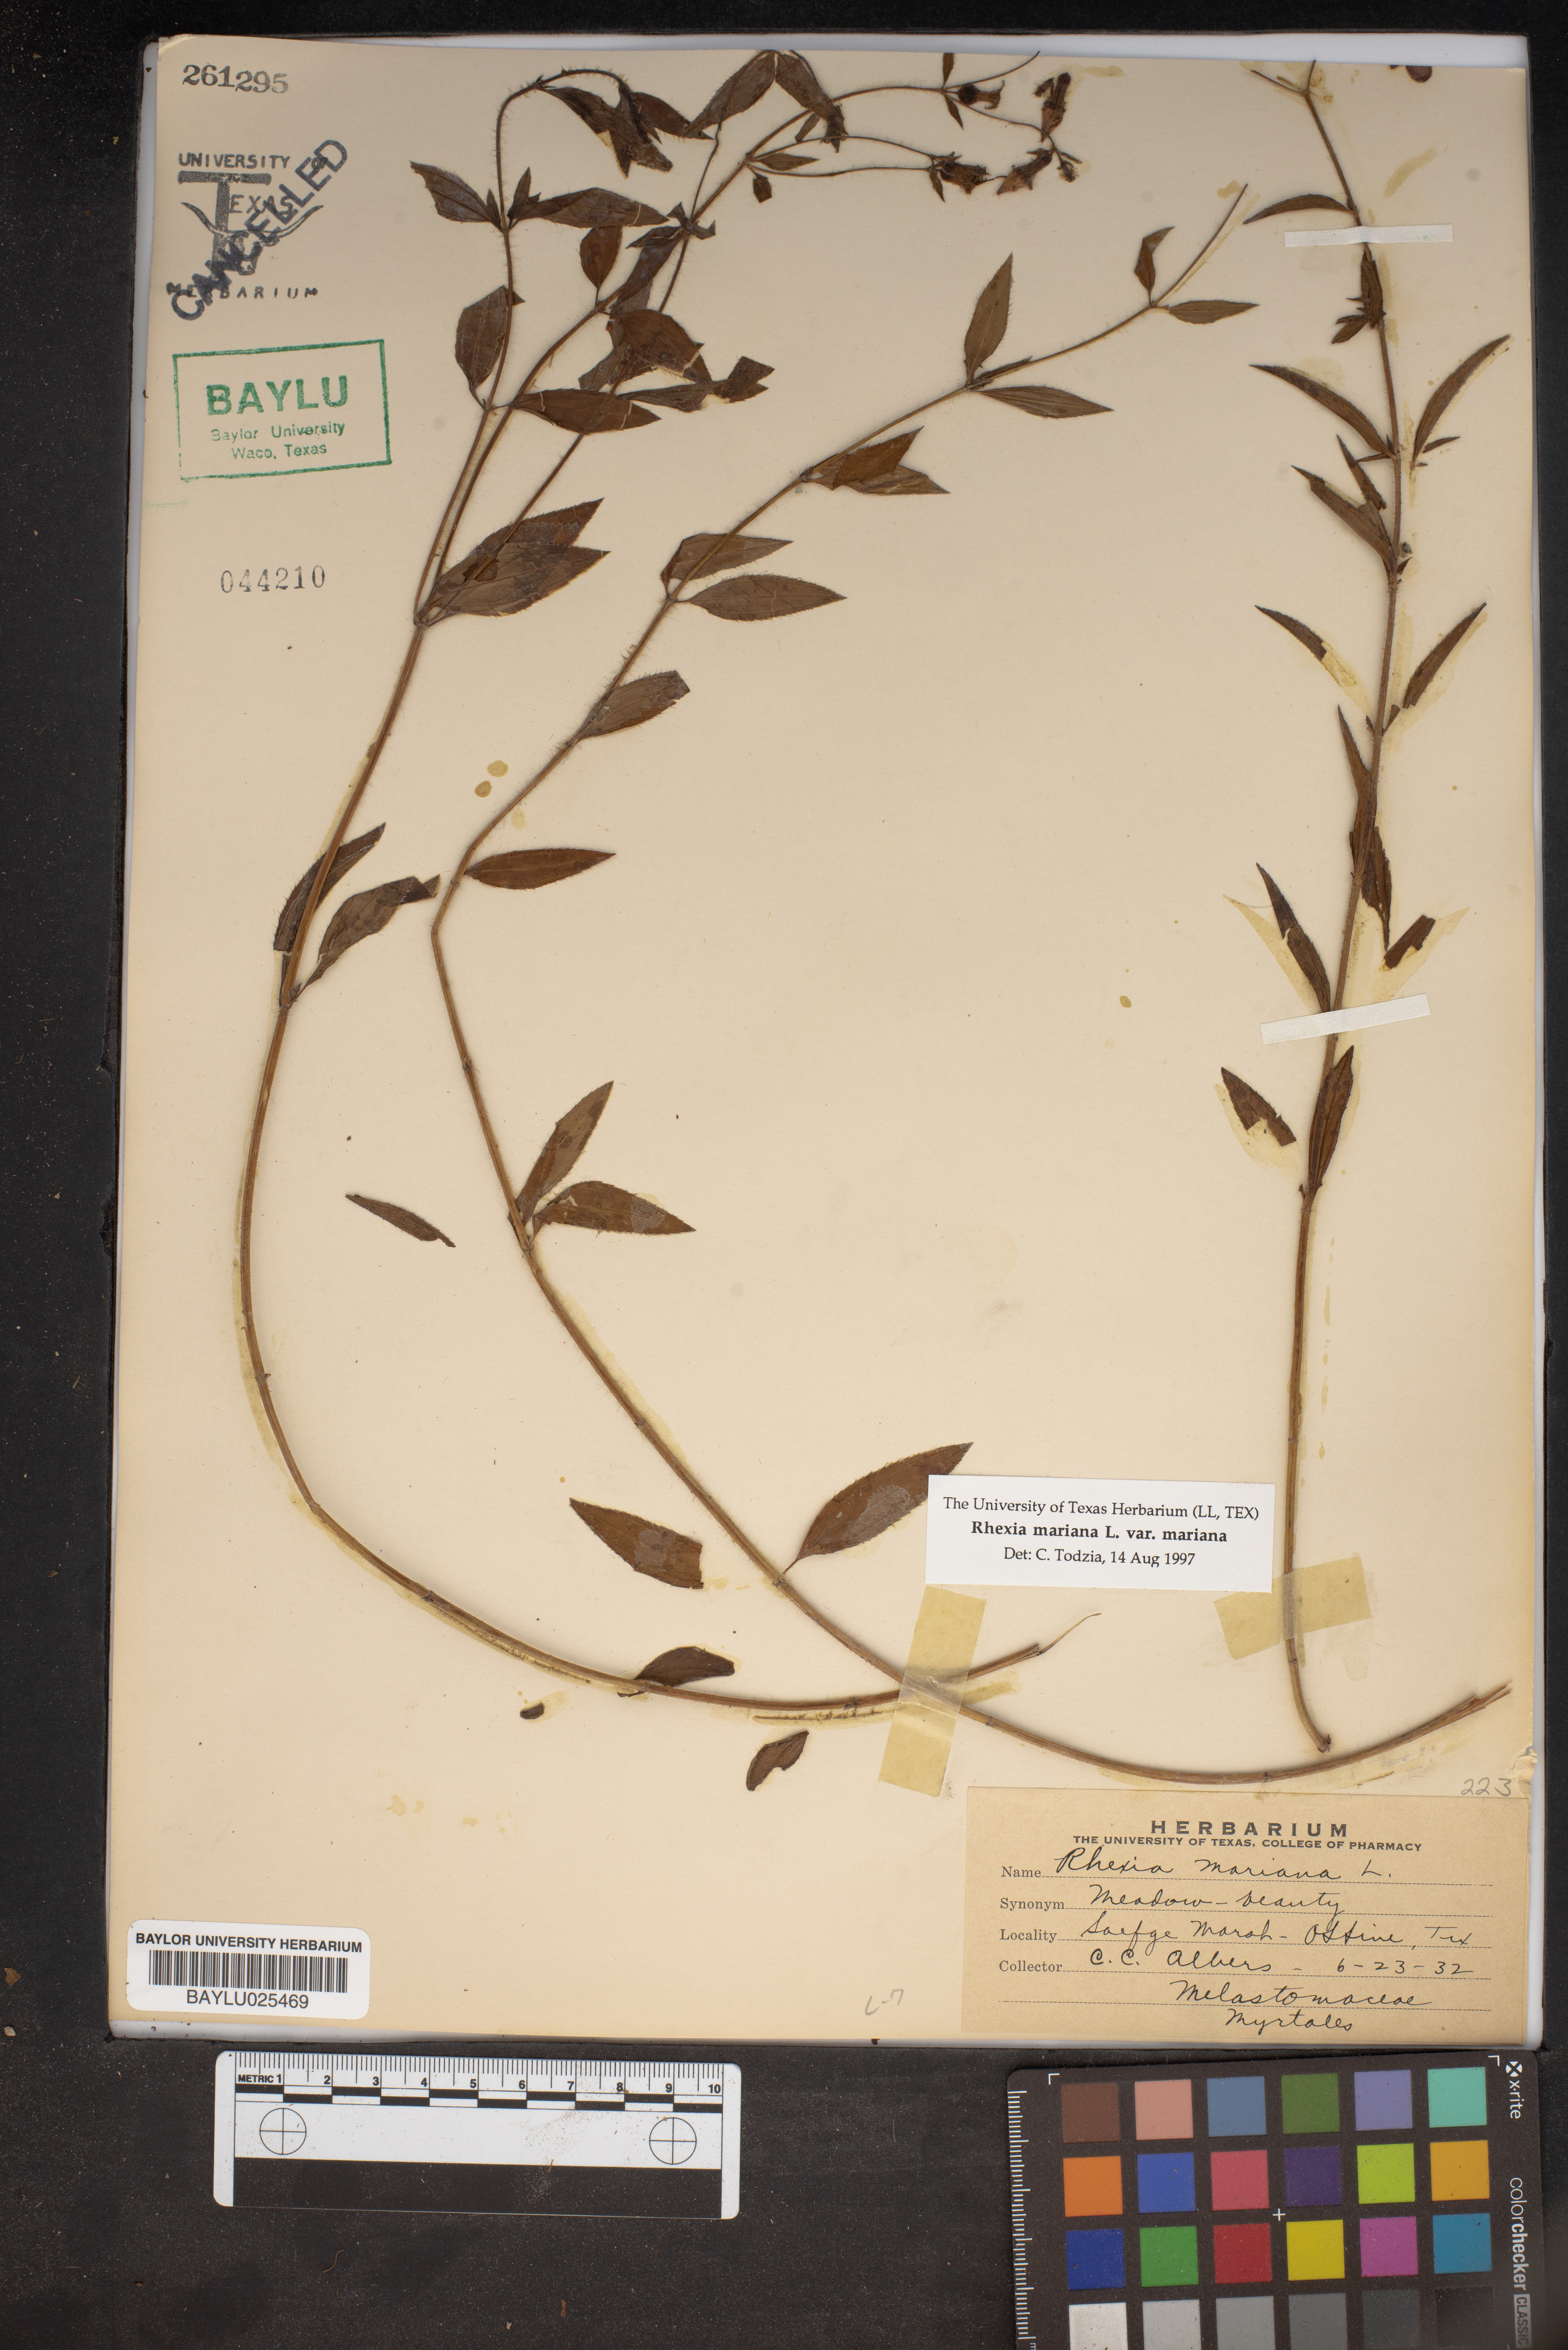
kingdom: Plantae
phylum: Tracheophyta
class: Magnoliopsida
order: Myrtales
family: Melastomataceae
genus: Rhexia
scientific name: Rhexia mariana
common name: Dull meadow-pitcher
